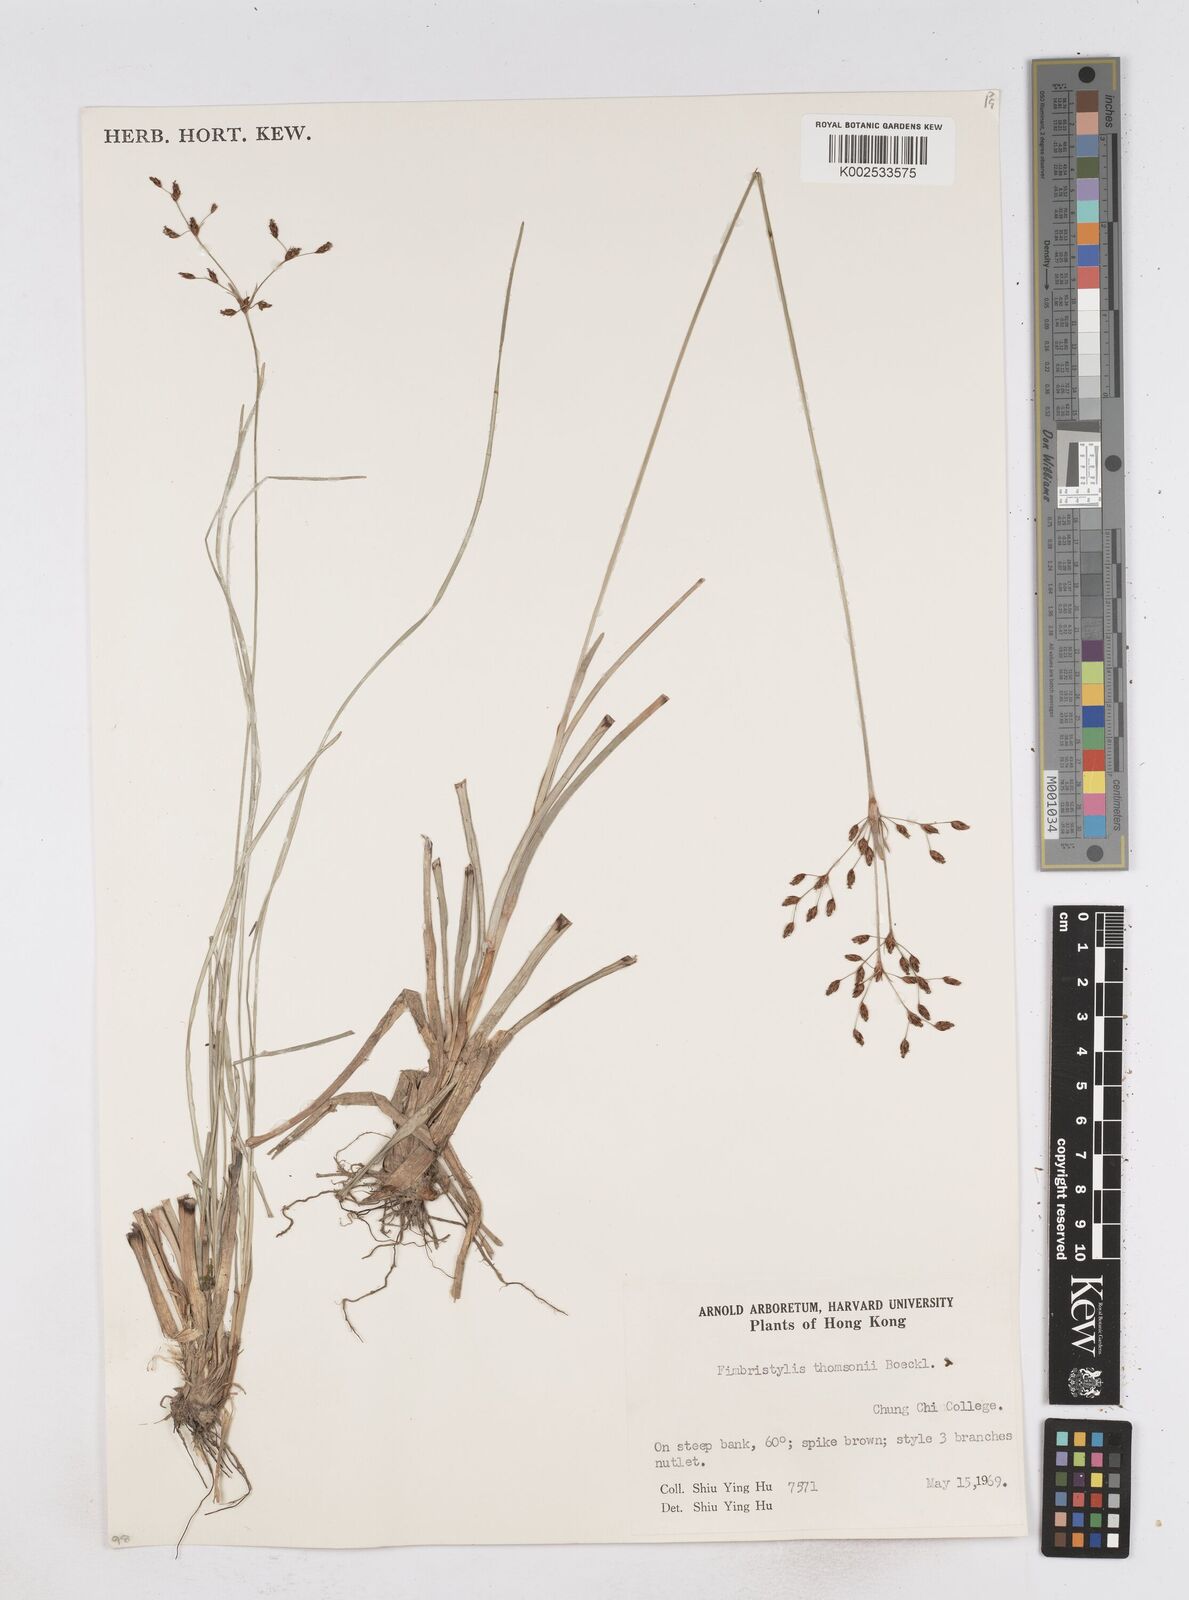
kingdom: Plantae
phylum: Tracheophyta
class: Liliopsida
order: Poales
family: Cyperaceae
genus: Fimbristylis
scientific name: Fimbristylis thomsonii
